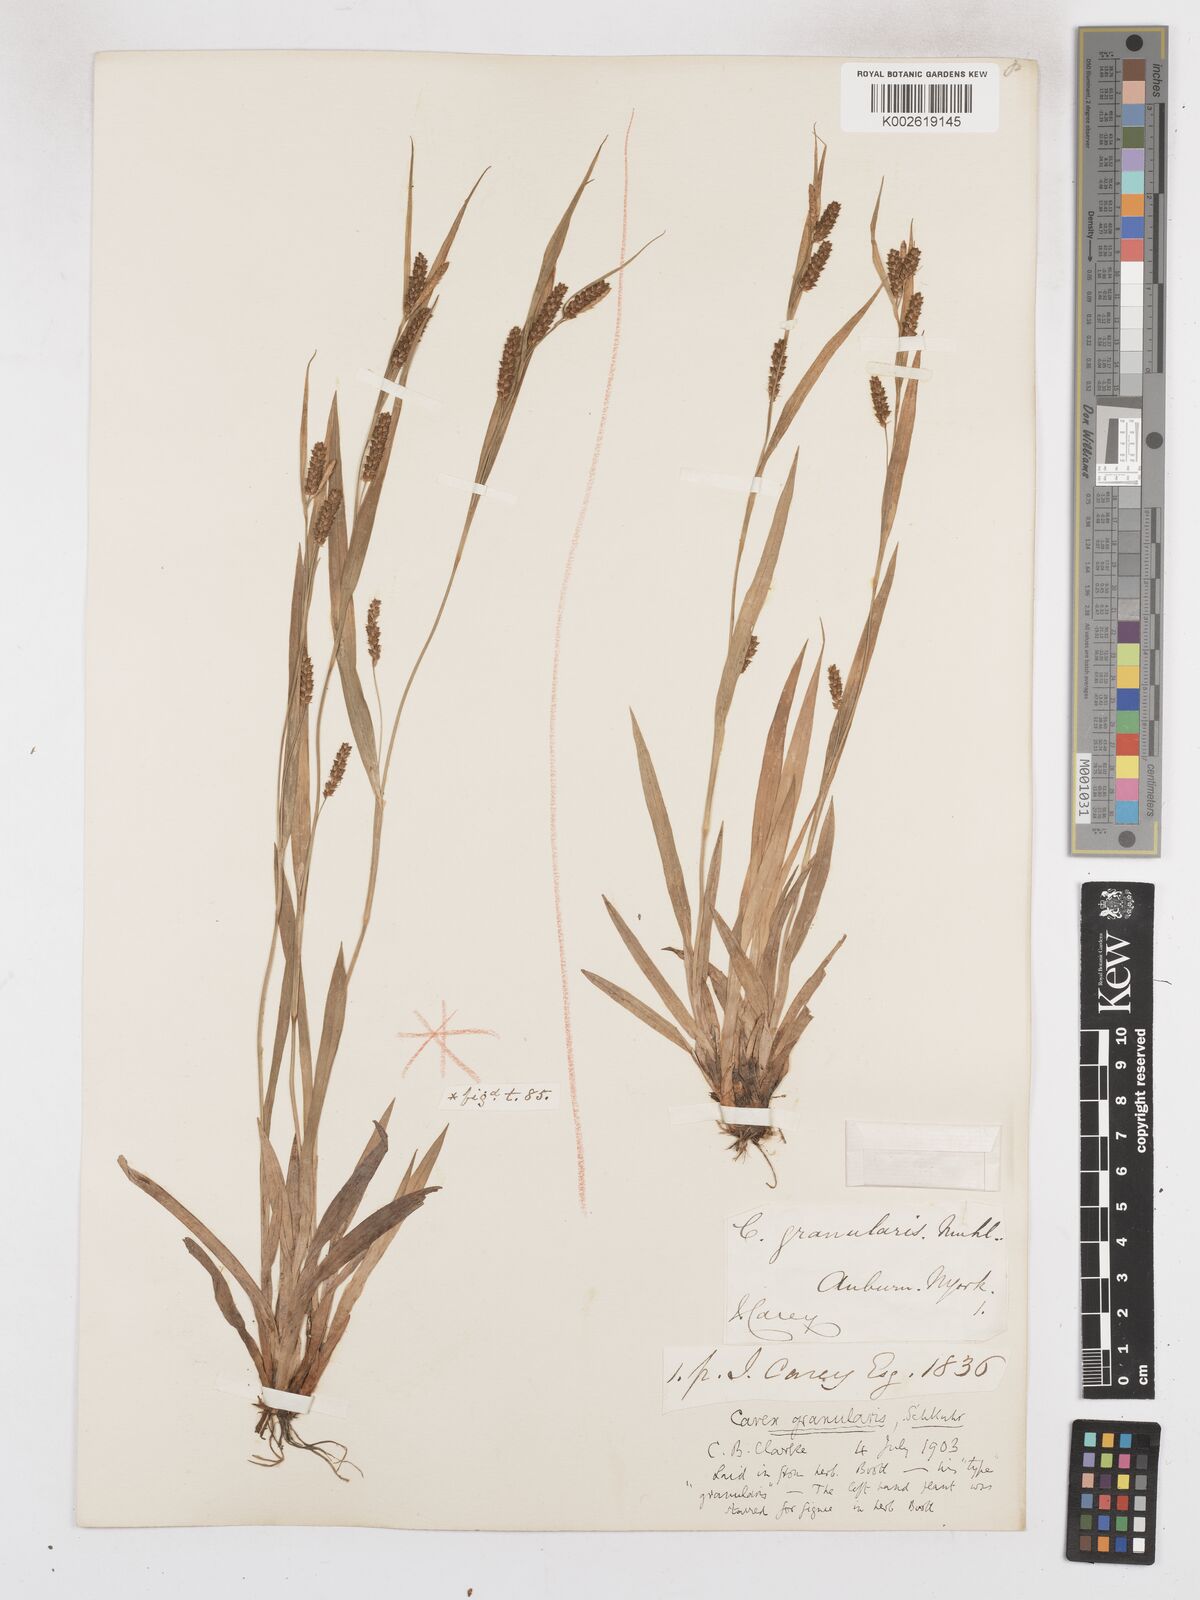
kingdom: Plantae
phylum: Tracheophyta
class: Liliopsida
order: Poales
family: Cyperaceae
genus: Carex
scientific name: Carex granularis
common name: Granular sedge
